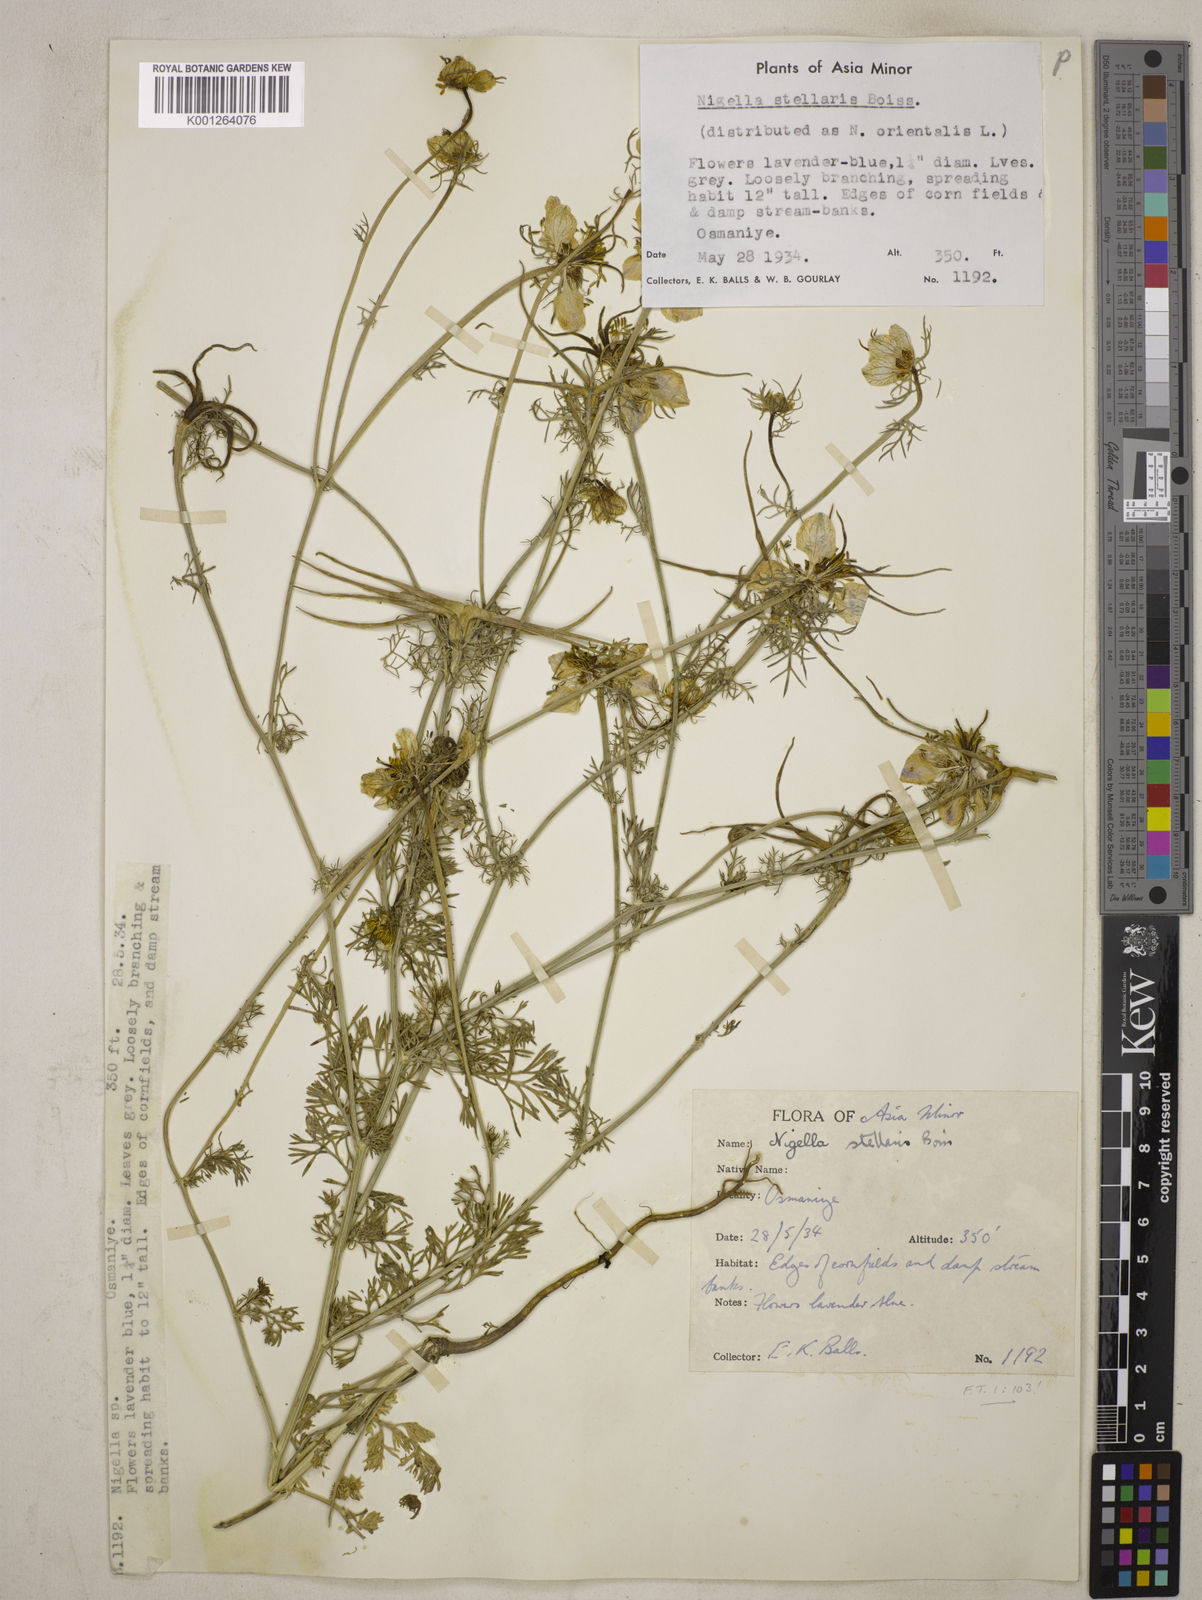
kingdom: Plantae
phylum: Tracheophyta
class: Magnoliopsida
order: Ranunculales
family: Ranunculaceae
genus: Nigella
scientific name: Nigella stellaris
